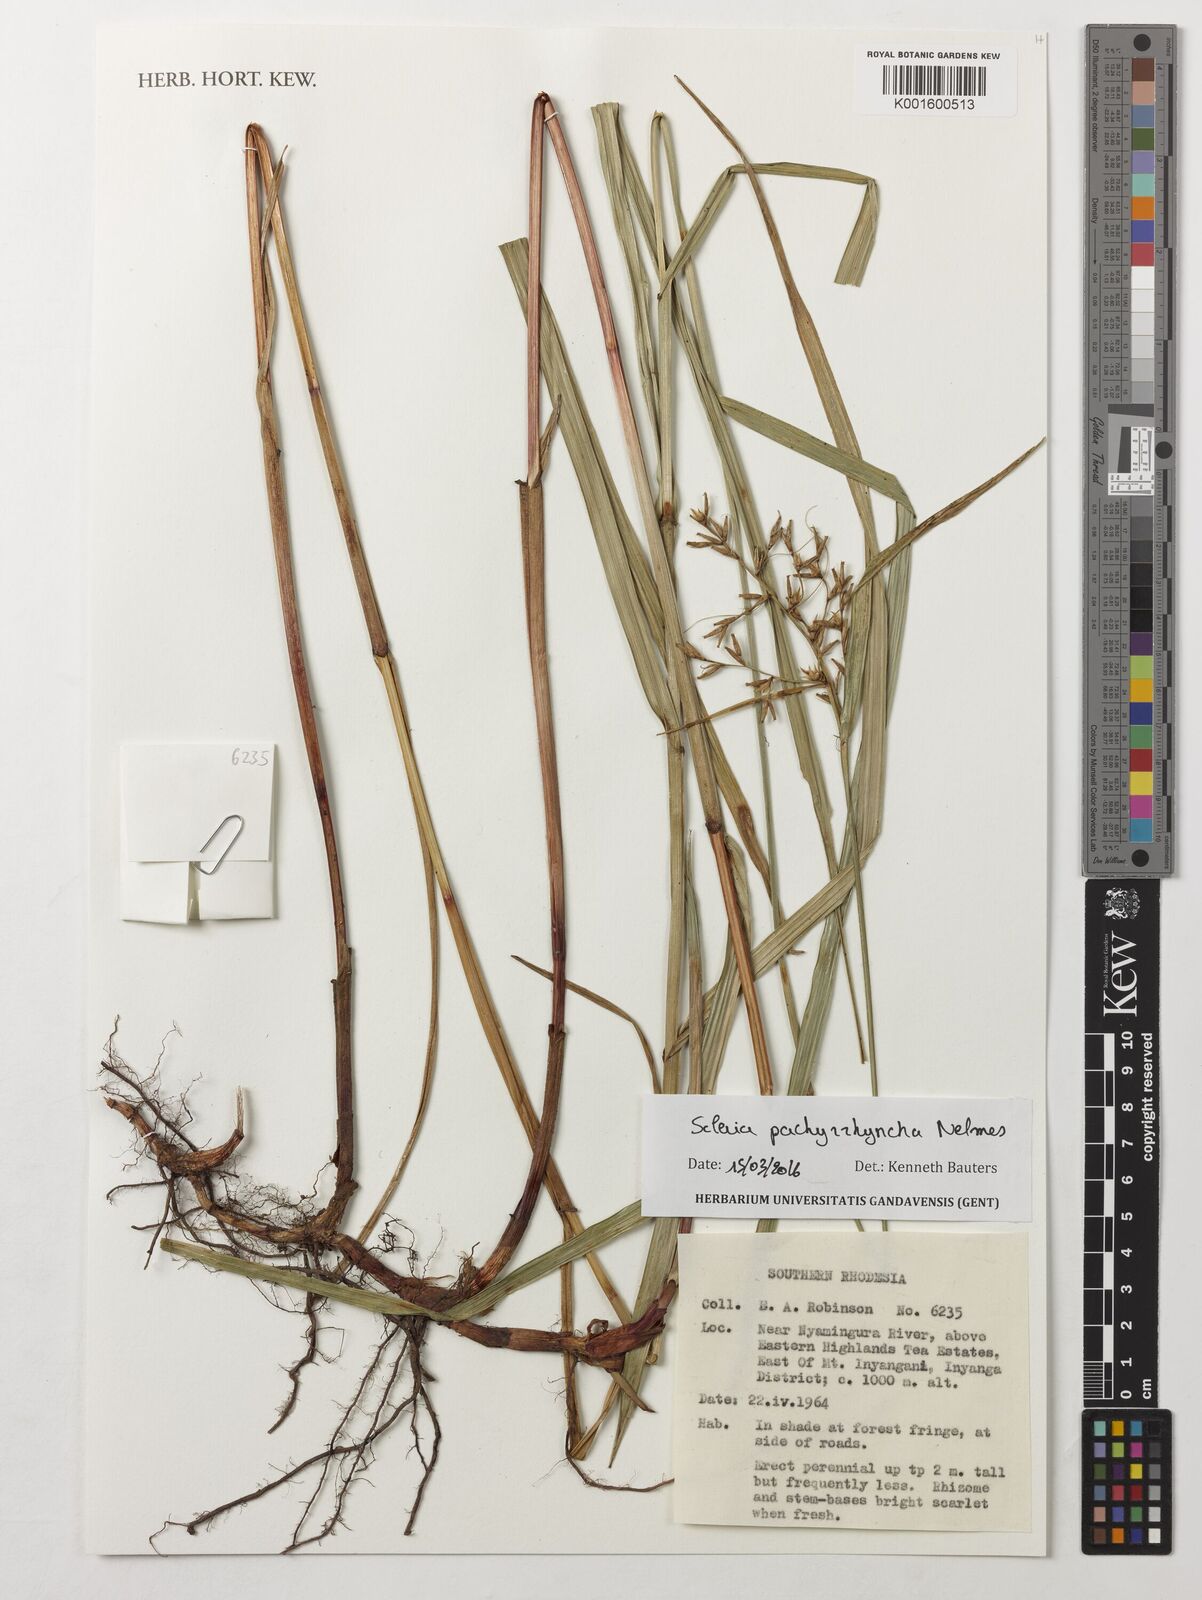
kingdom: Plantae
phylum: Tracheophyta
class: Liliopsida
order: Poales
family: Cyperaceae
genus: Scleria
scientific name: Scleria pachyrrhyncha
